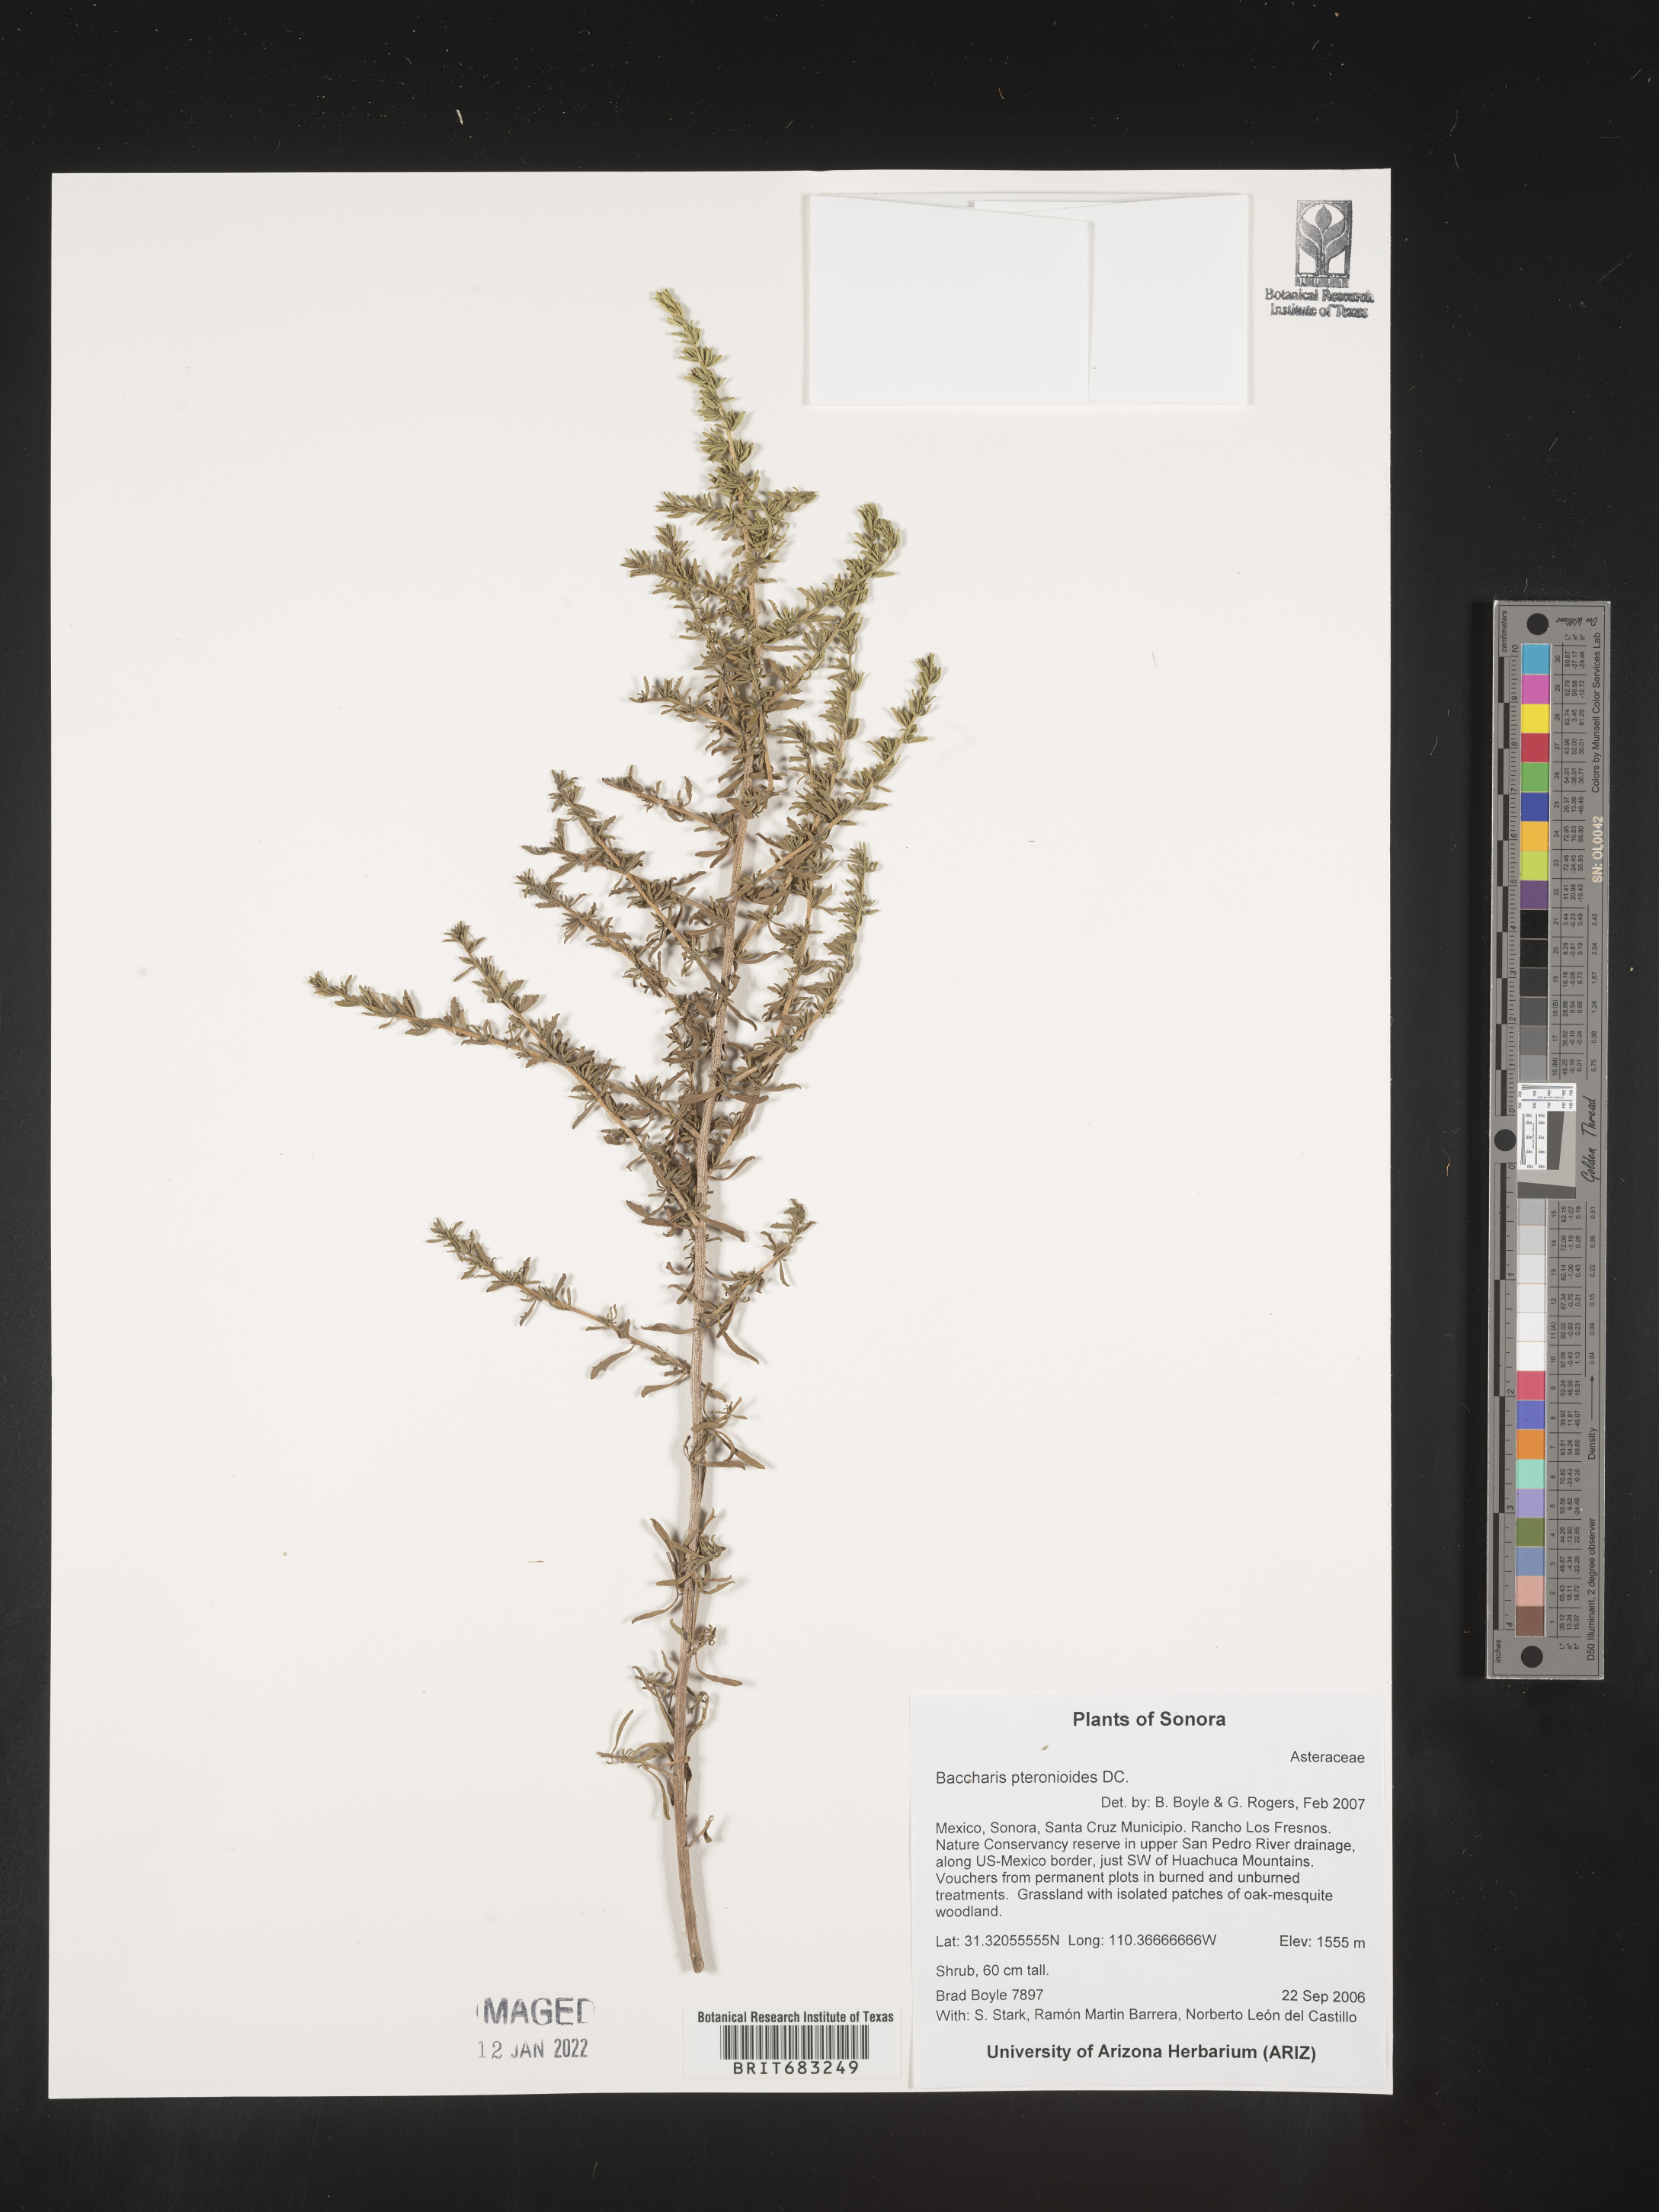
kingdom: Plantae
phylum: Tracheophyta
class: Magnoliopsida
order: Asterales
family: Asteraceae
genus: Baccharis
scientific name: Baccharis pteronioides
